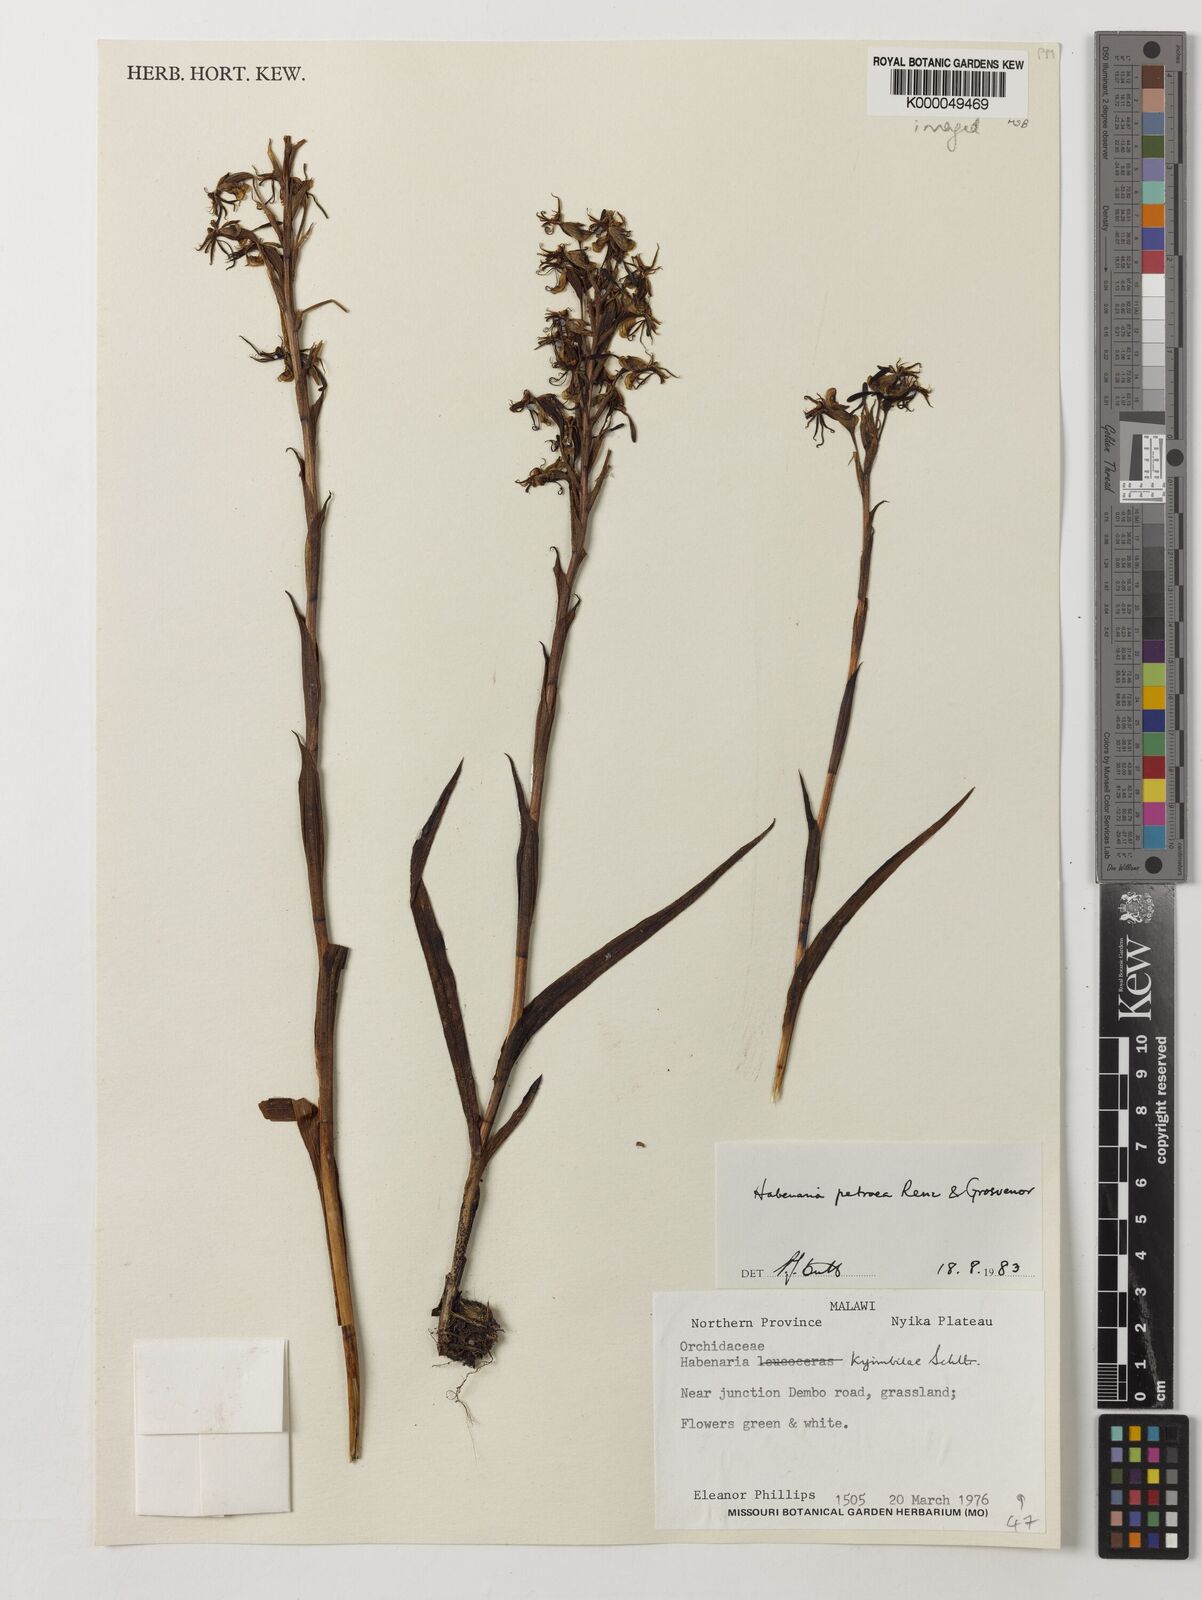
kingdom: Plantae
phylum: Tracheophyta
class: Liliopsida
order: Asparagales
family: Orchidaceae
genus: Habenaria
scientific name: Habenaria petraea
